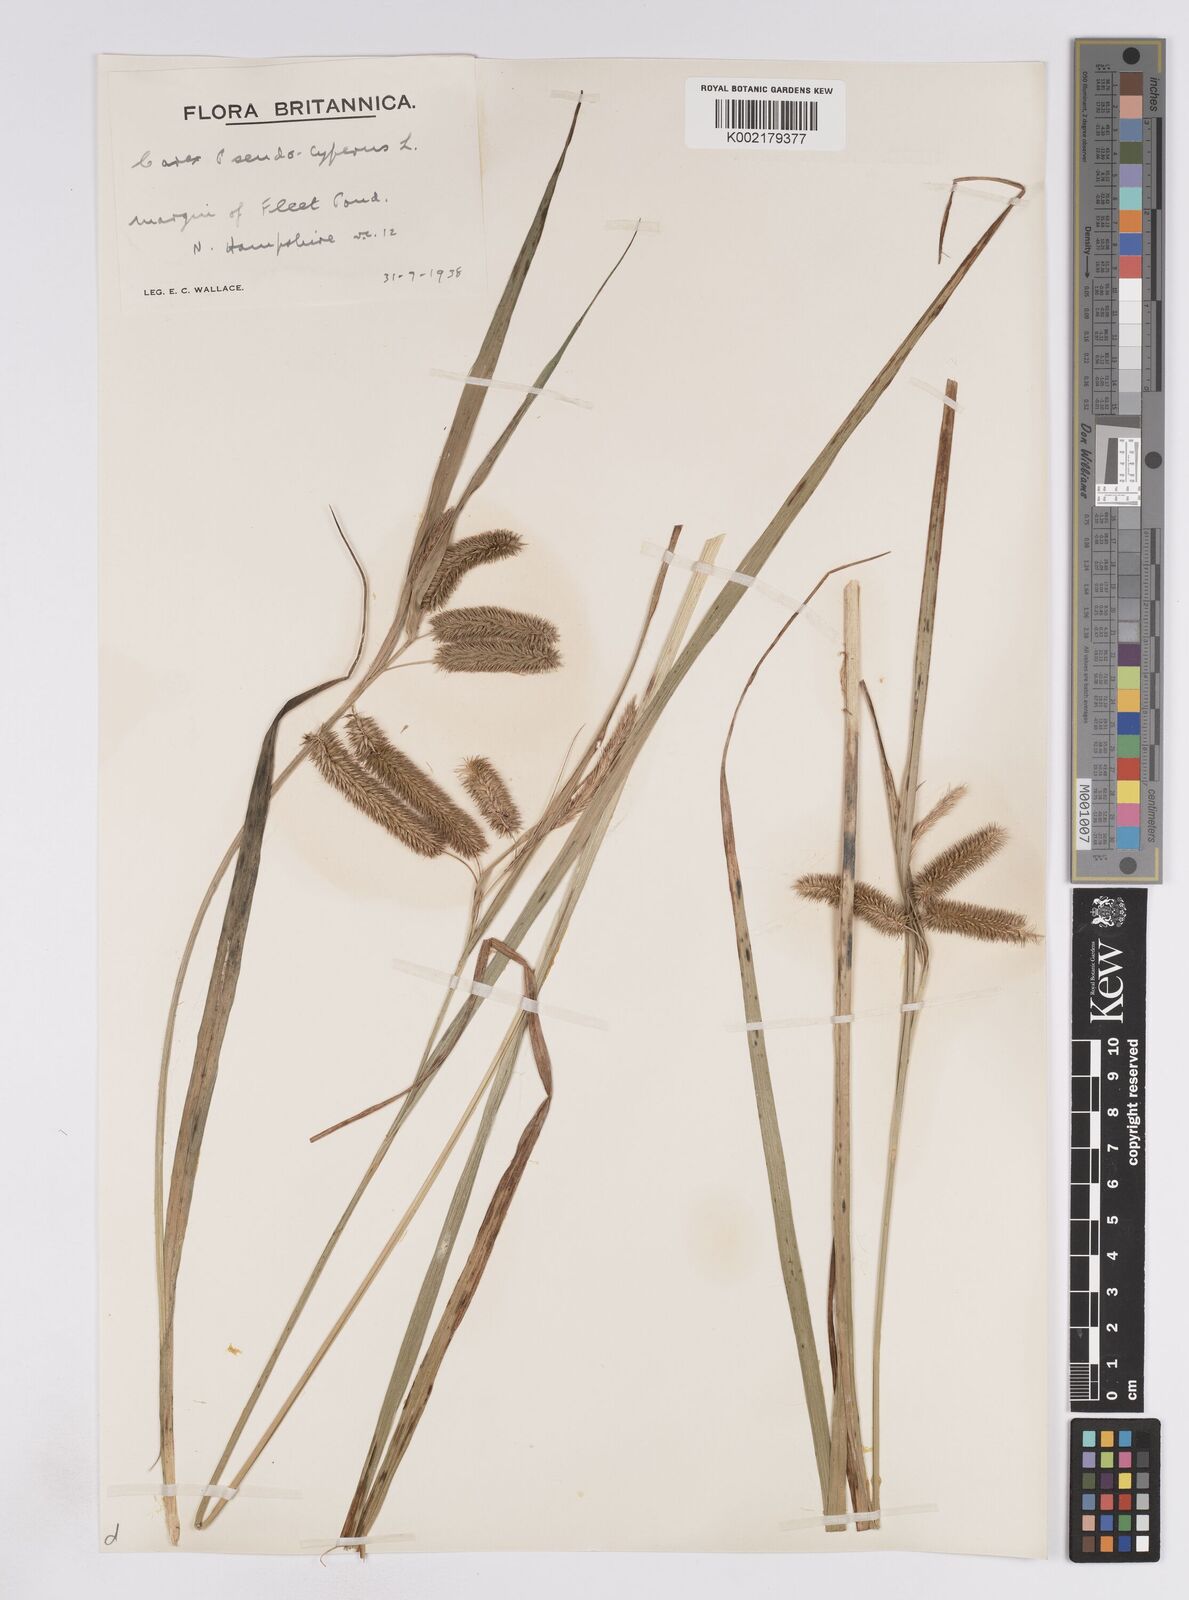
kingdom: Plantae
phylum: Tracheophyta
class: Liliopsida
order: Poales
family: Cyperaceae
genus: Carex
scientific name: Carex pseudocyperus
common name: Cyperus sedge
